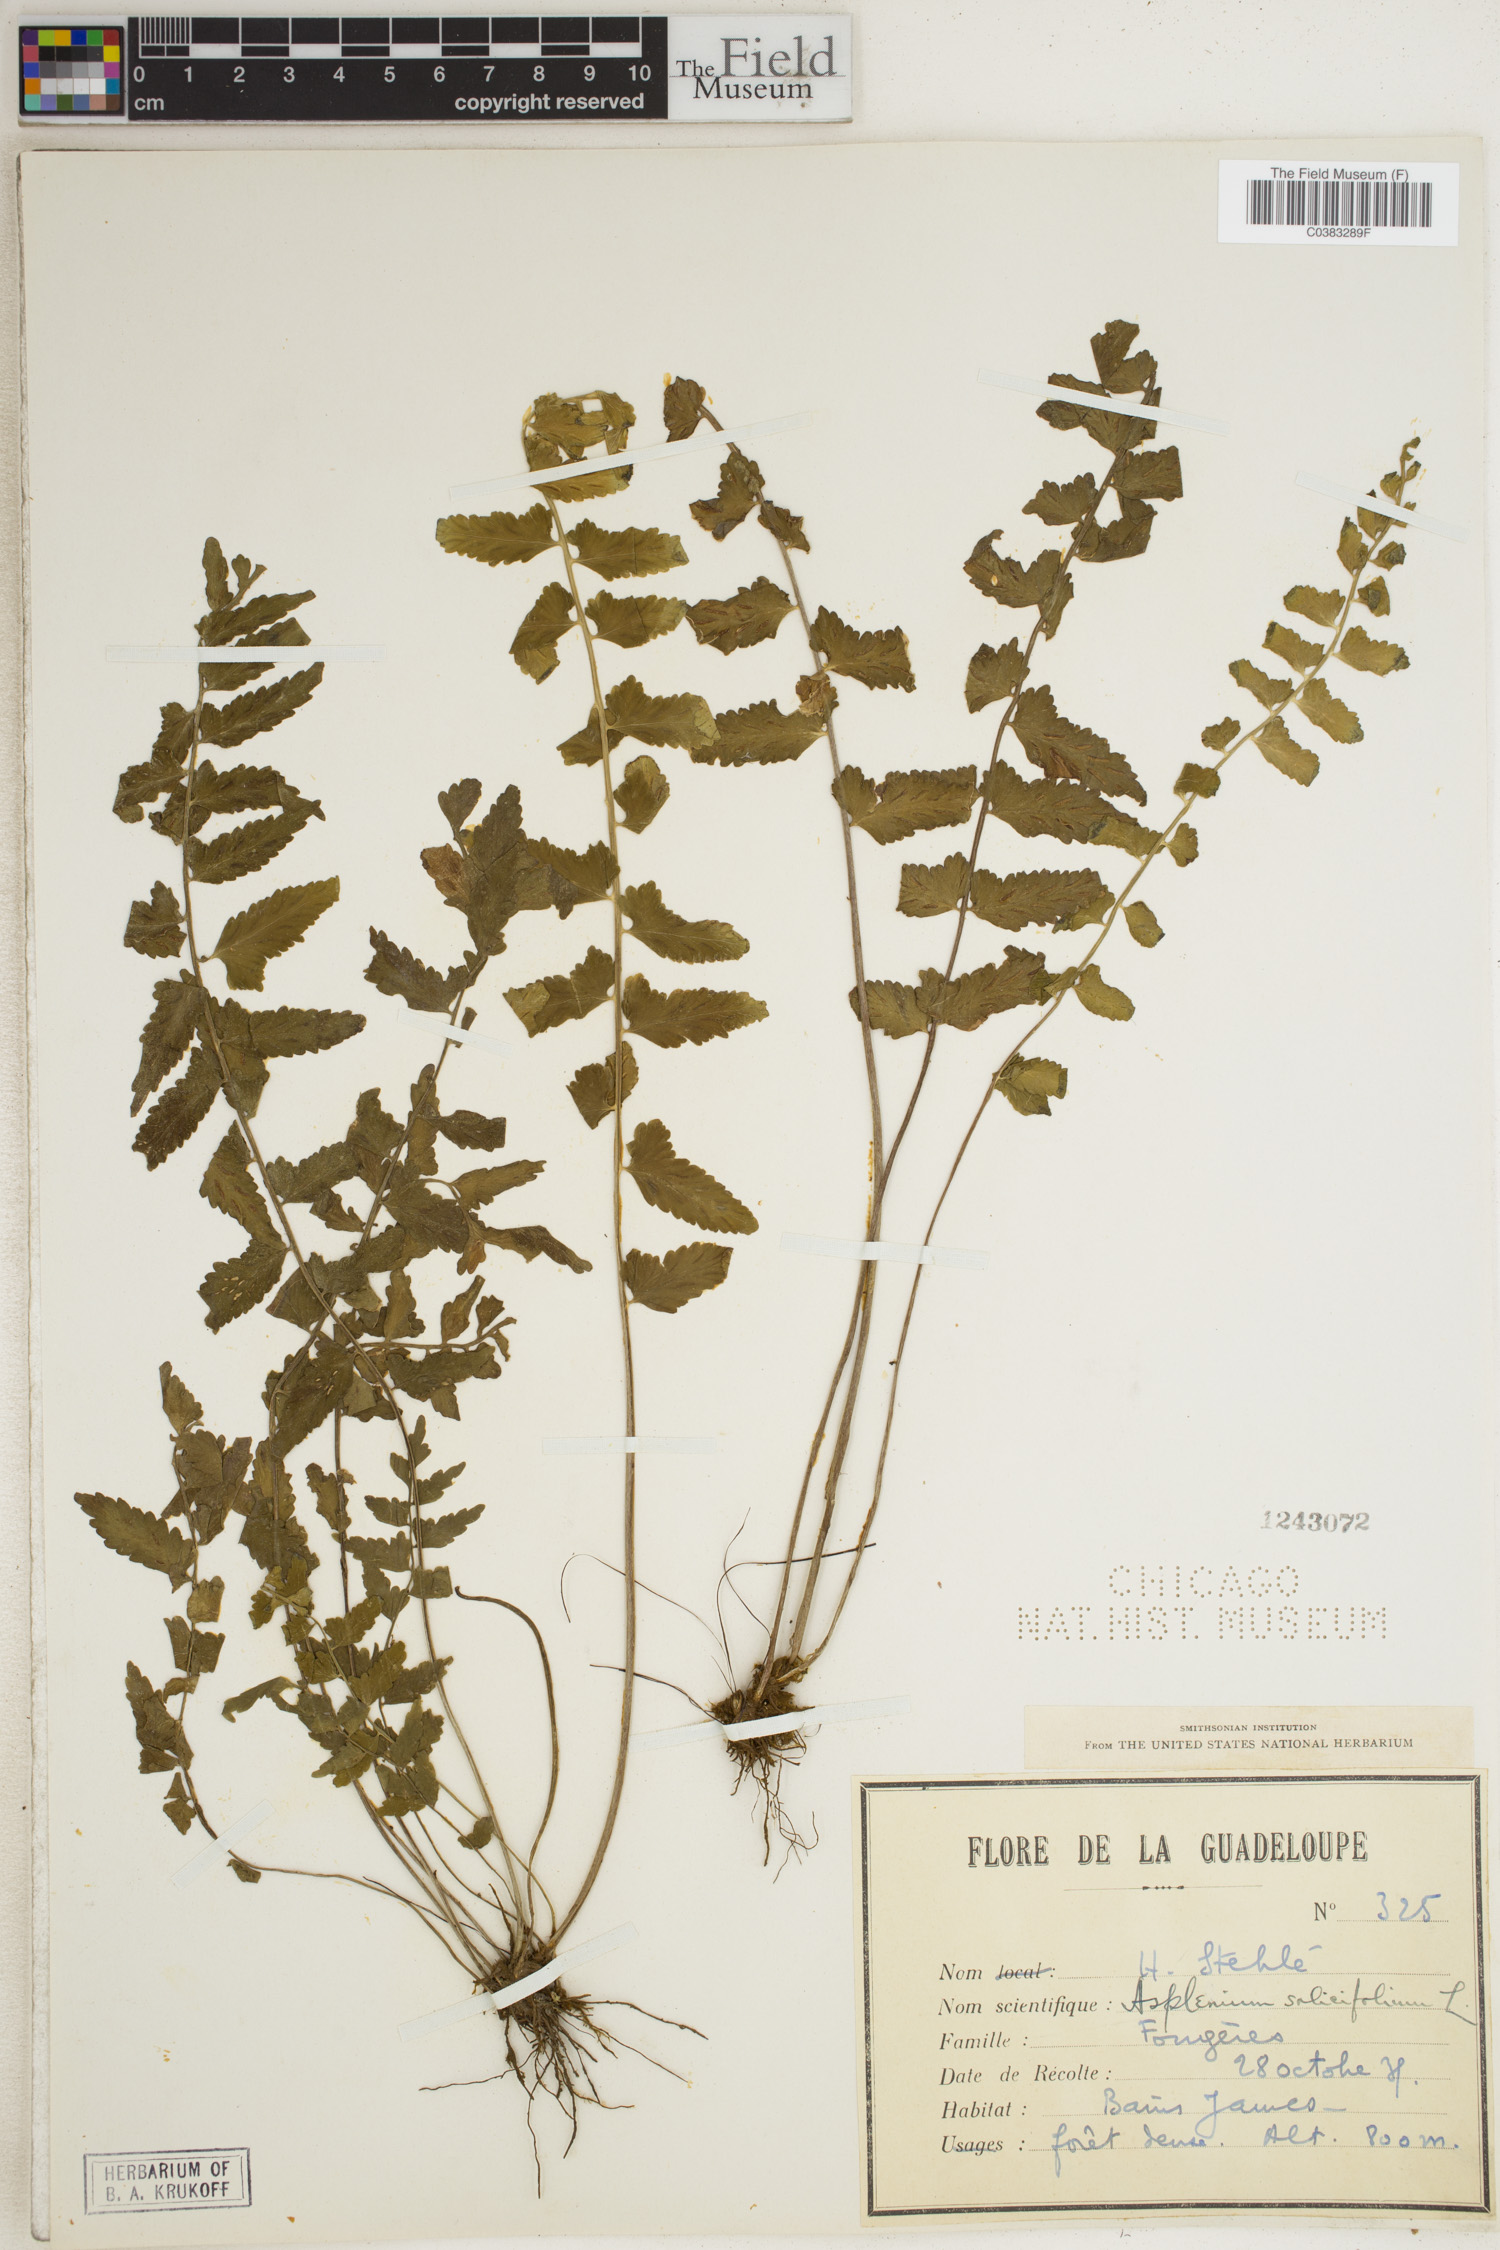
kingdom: Plantae
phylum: Tracheophyta
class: Polypodiopsida
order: Polypodiales
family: Aspleniaceae
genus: Asplenium
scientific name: Asplenium salicifolium
